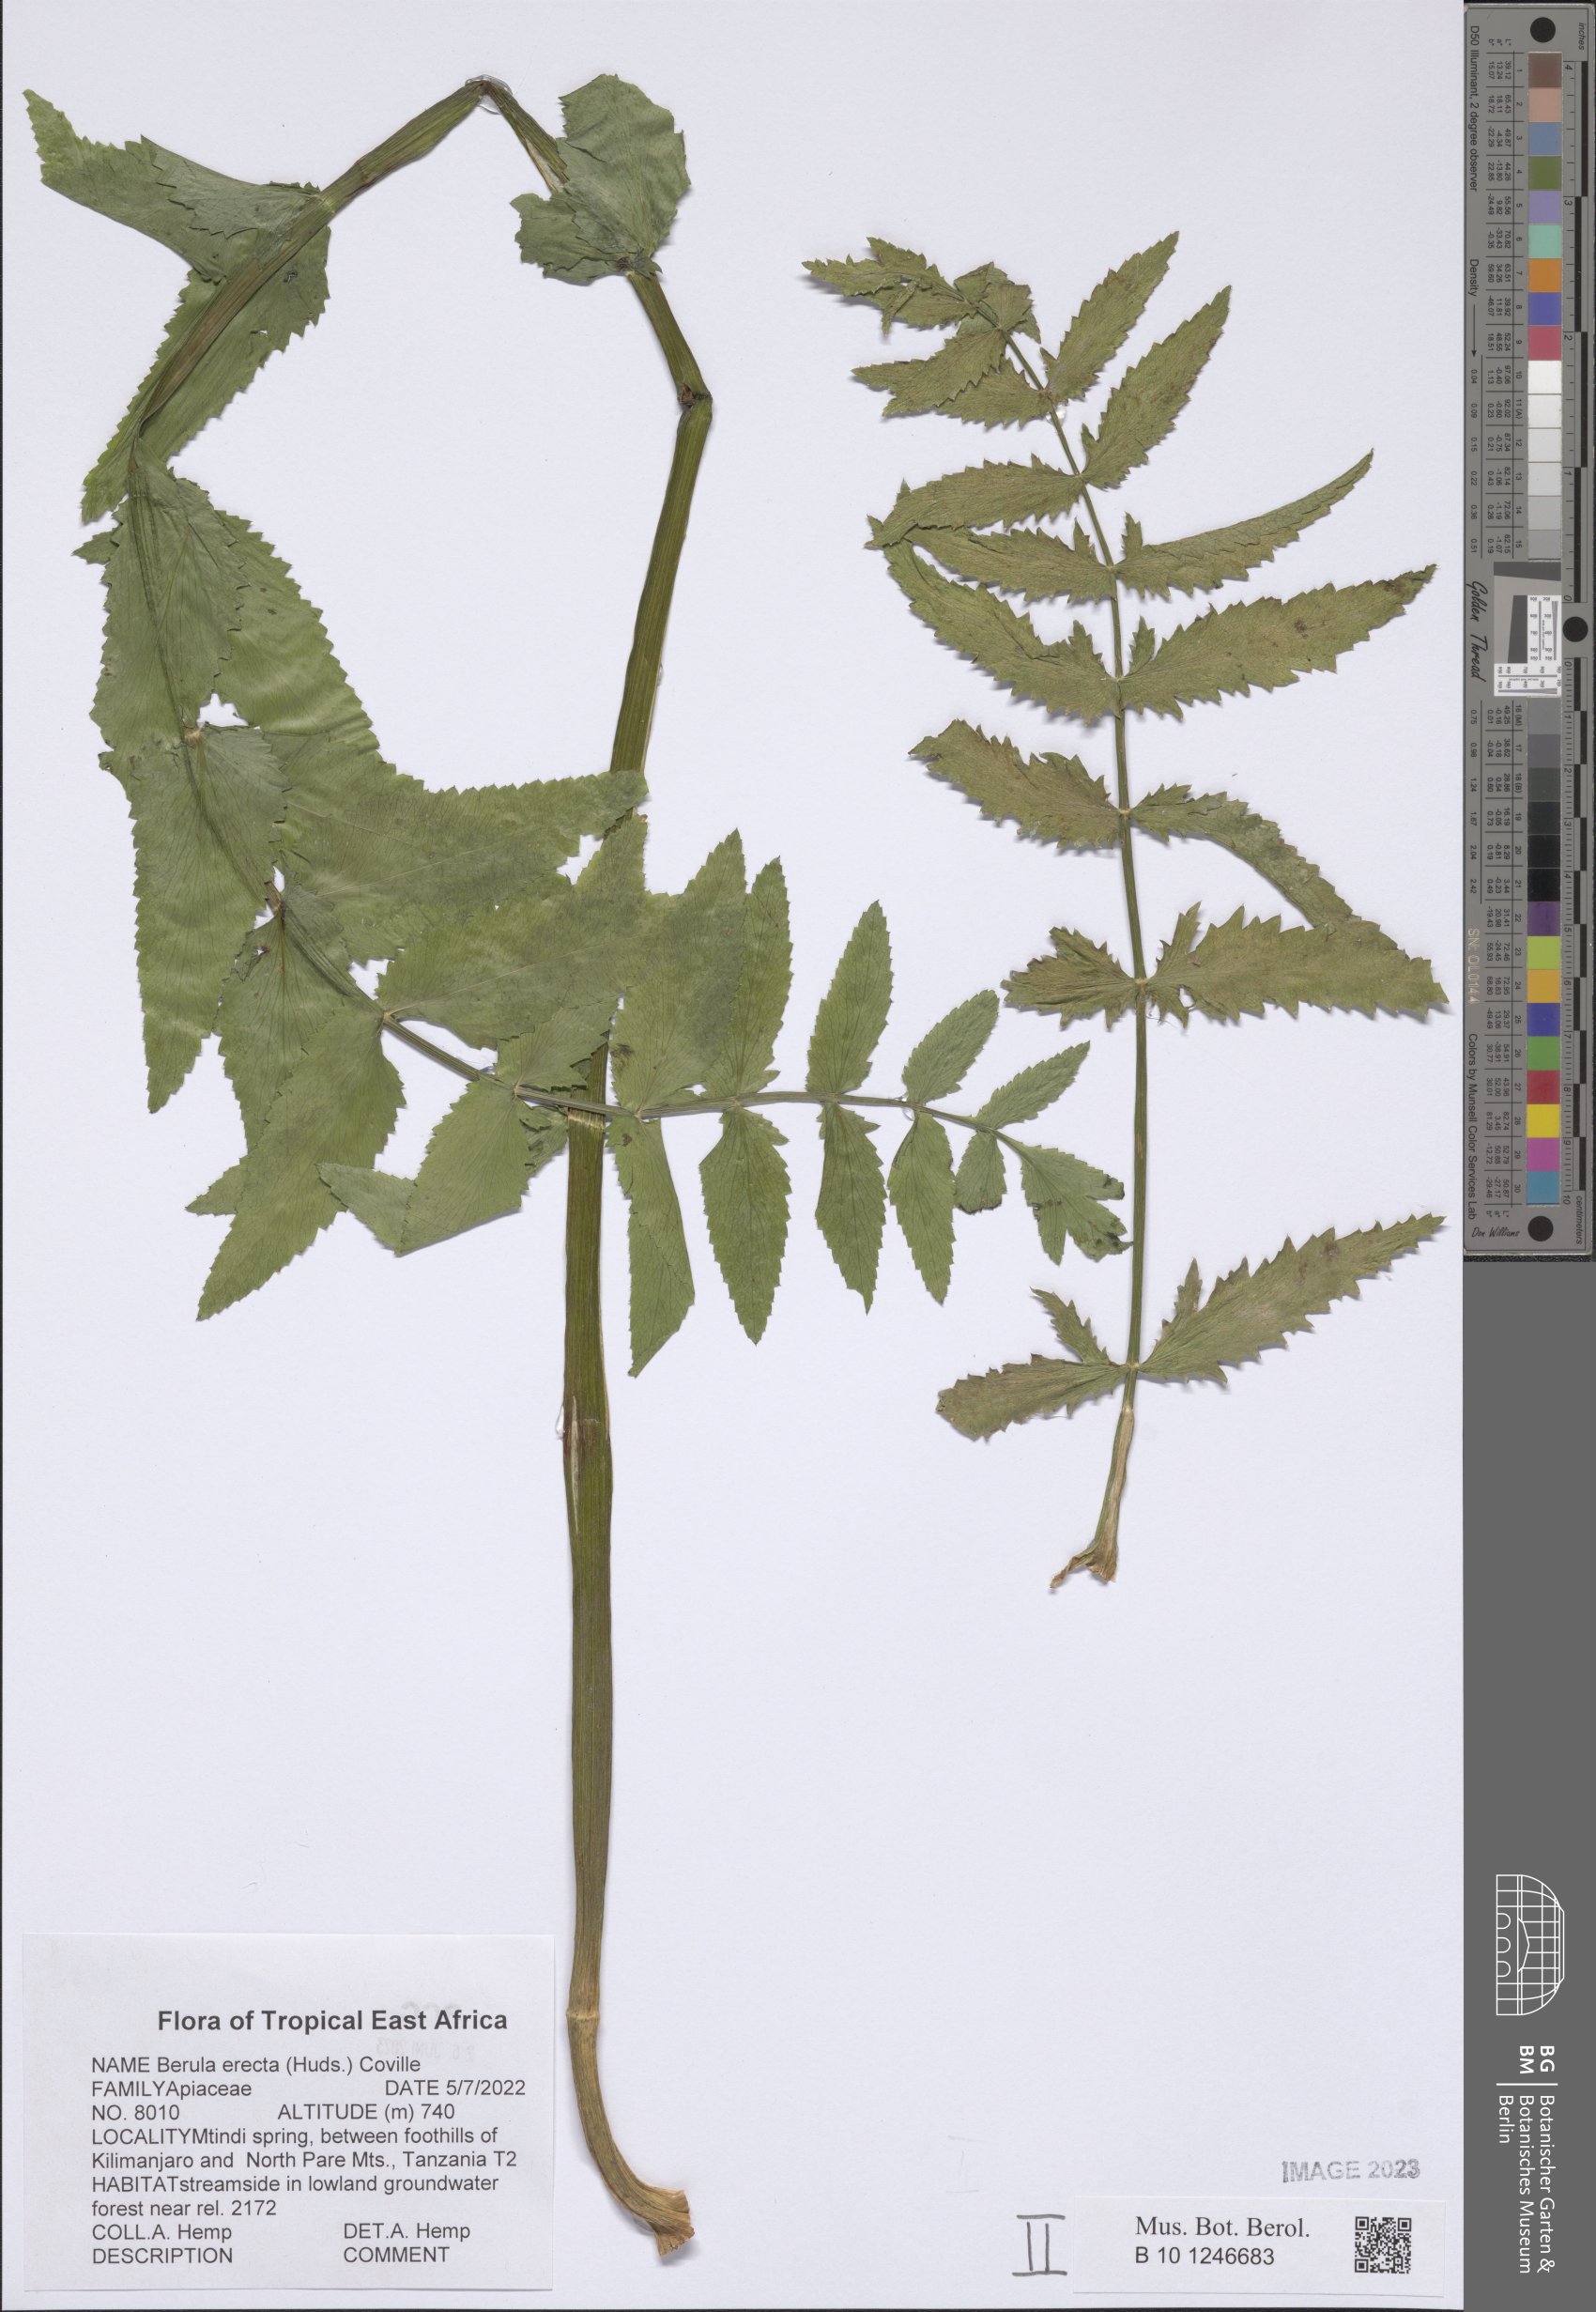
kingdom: Plantae
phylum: Tracheophyta
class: Magnoliopsida
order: Apiales
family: Apiaceae
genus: Berula
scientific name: Berula erecta
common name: Lesser water-parsnip
